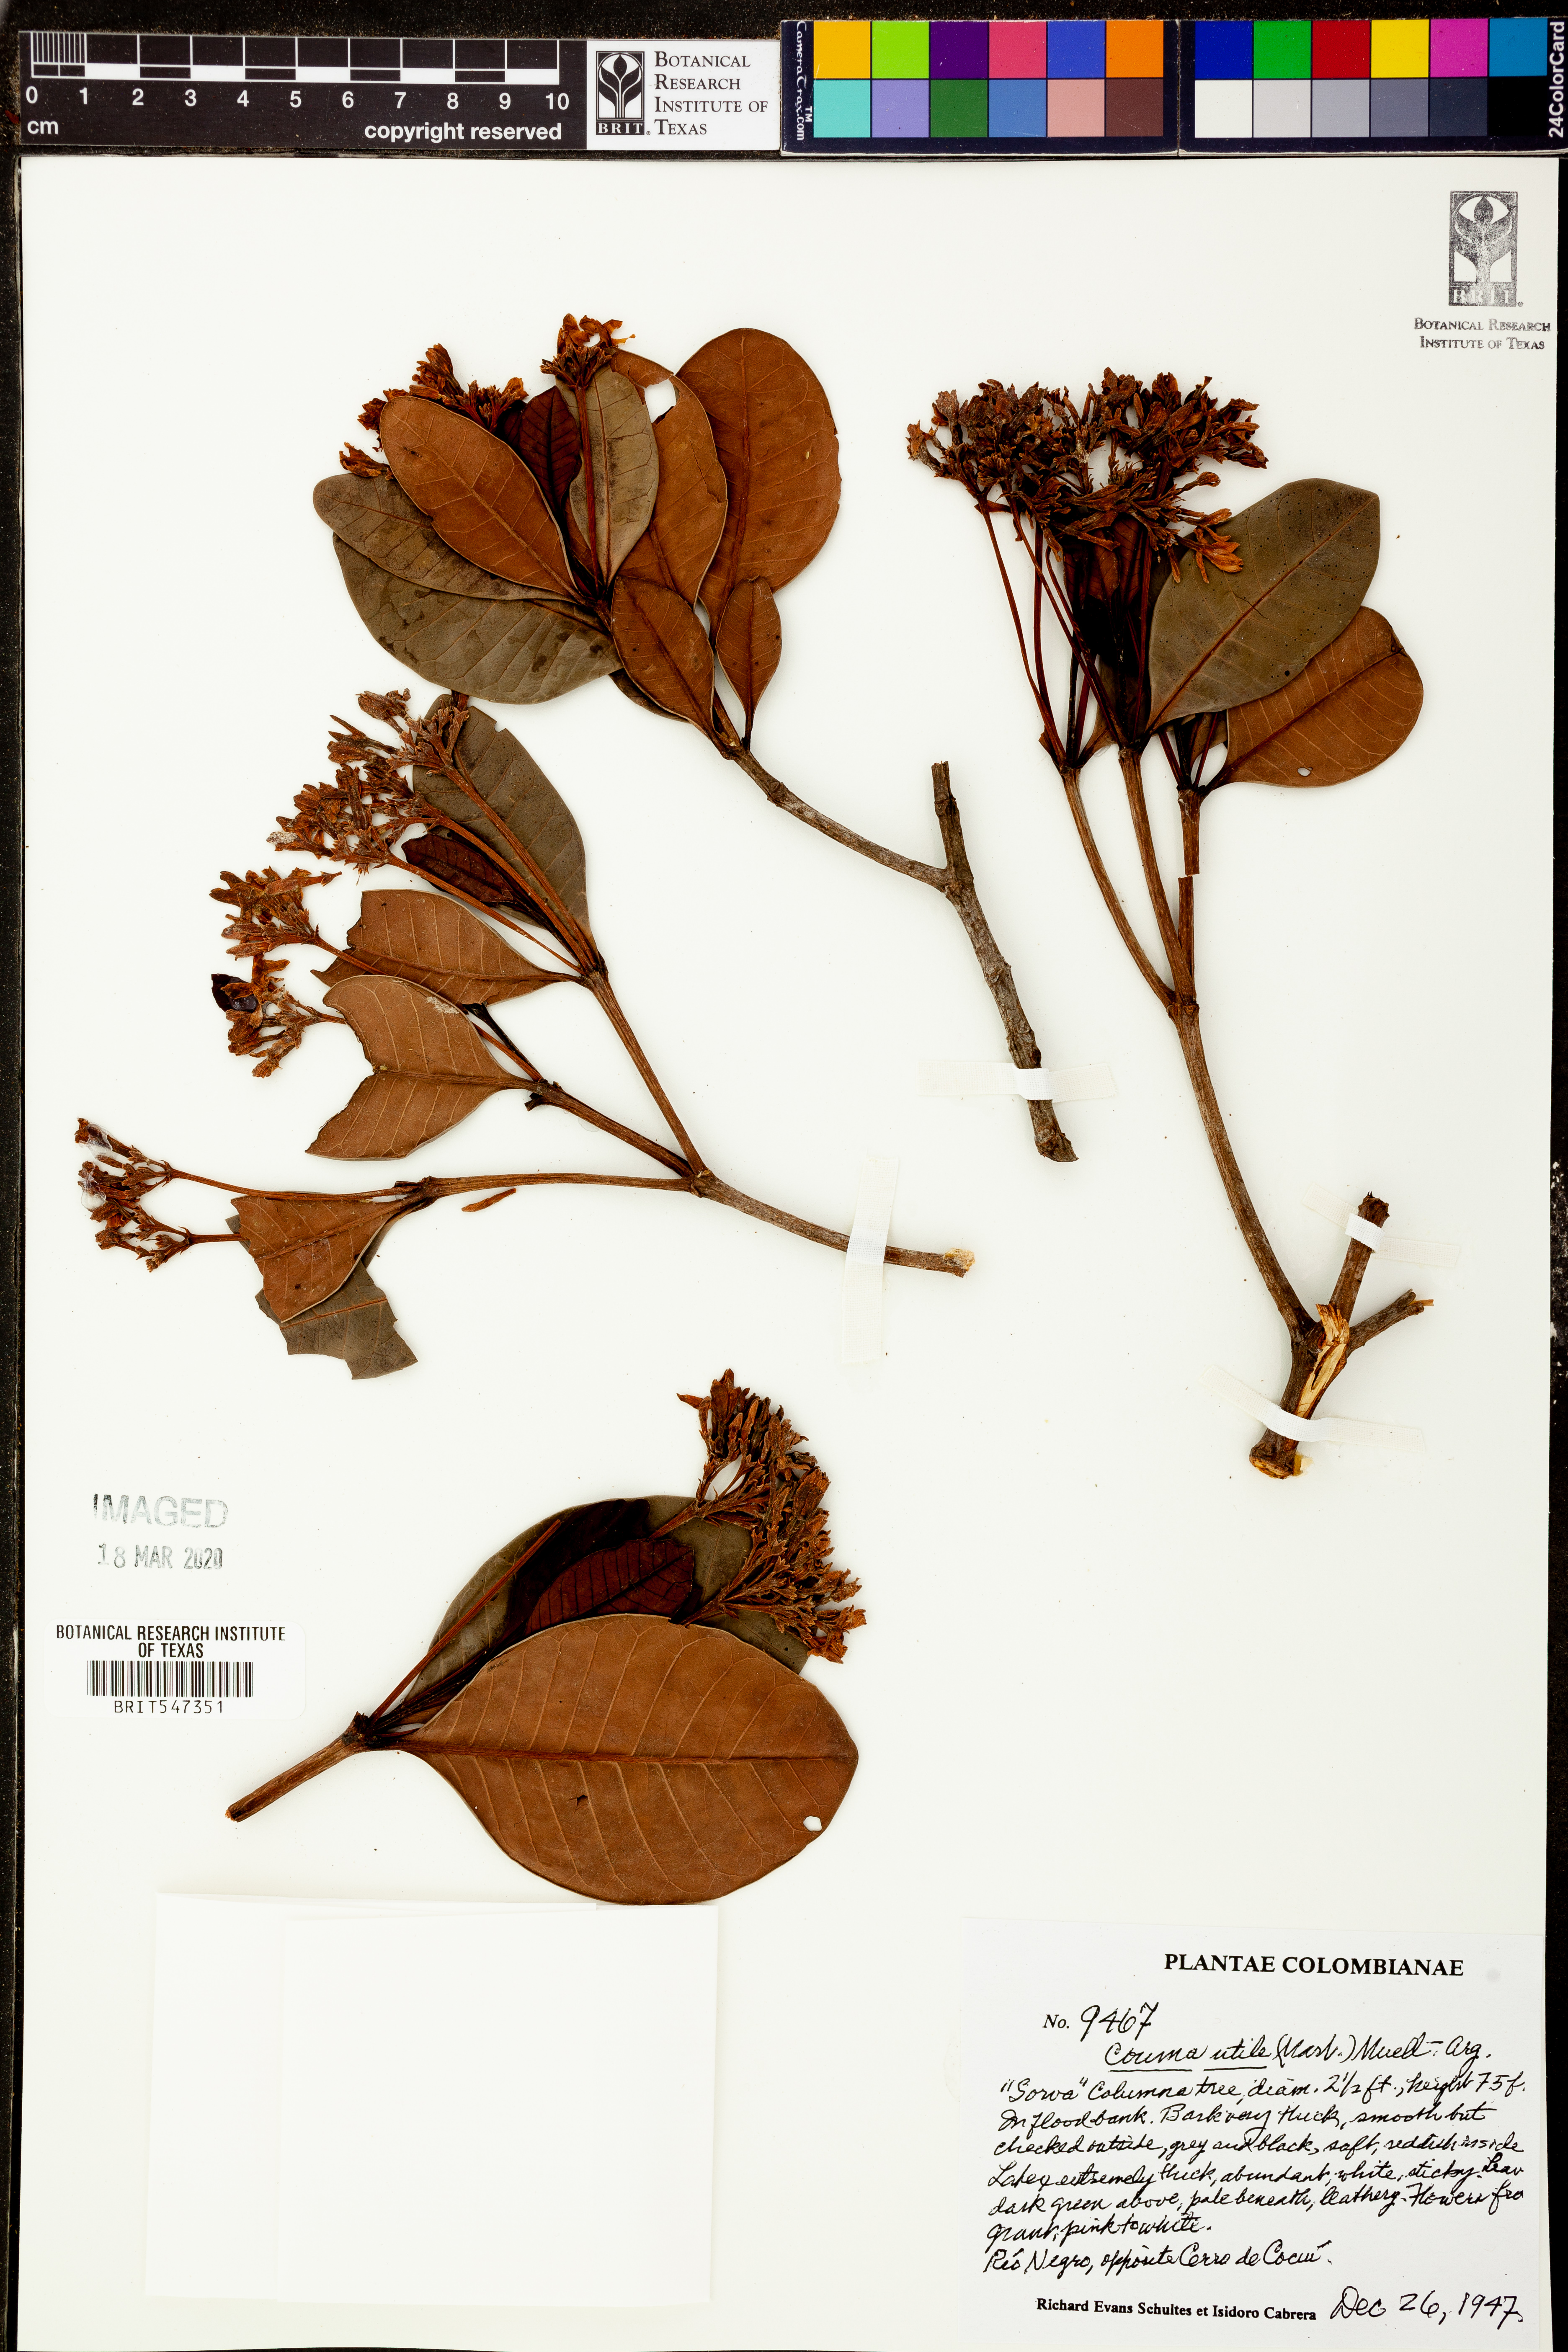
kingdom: Plantae
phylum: Tracheophyta
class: Magnoliopsida
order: Gentianales
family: Apocynaceae
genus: Couma
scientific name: Couma utilis
